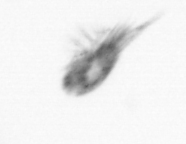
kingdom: Animalia
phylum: Arthropoda
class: Maxillopoda
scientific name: Maxillopoda
